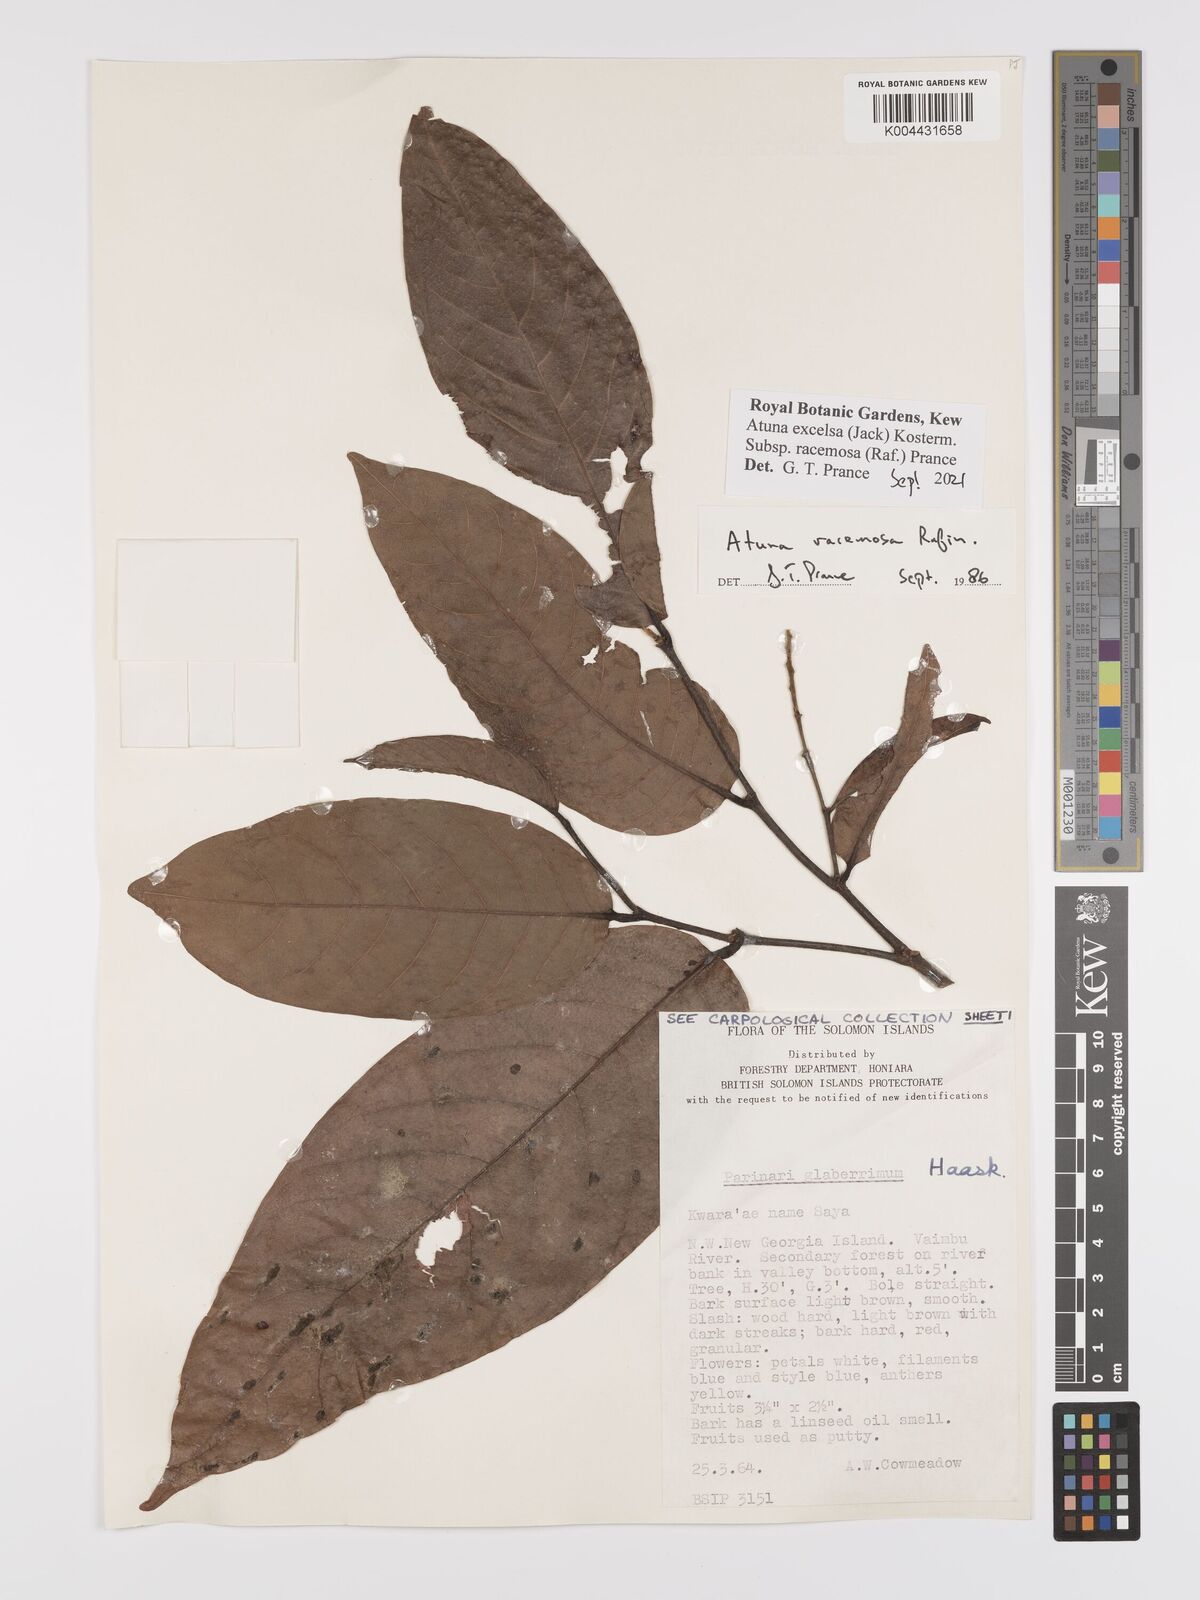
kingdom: Plantae
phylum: Tracheophyta
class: Magnoliopsida
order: Malpighiales
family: Chrysobalanaceae
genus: Atuna
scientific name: Atuna excelsa
